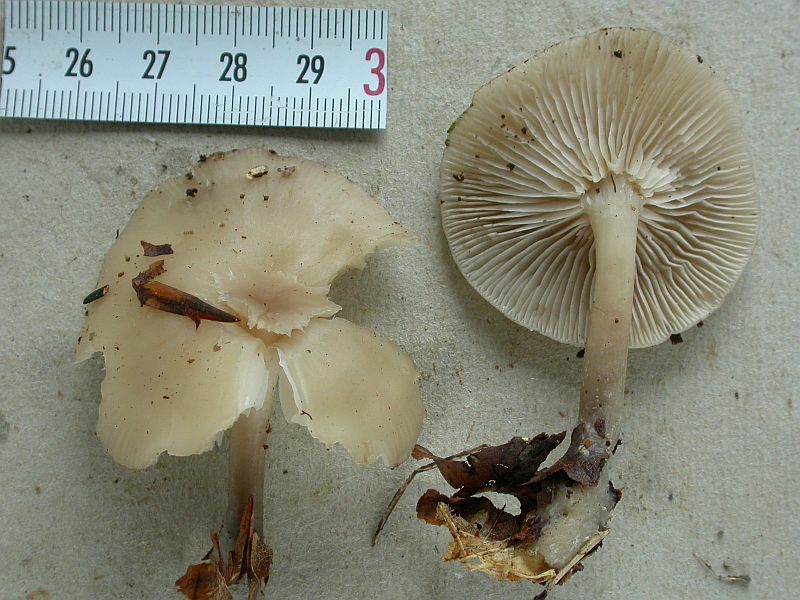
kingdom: Fungi
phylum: Basidiomycota
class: Agaricomycetes
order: Agaricales
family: Tricholomataceae
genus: Clitocybe
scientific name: Clitocybe metachroa
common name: grå tragthat
